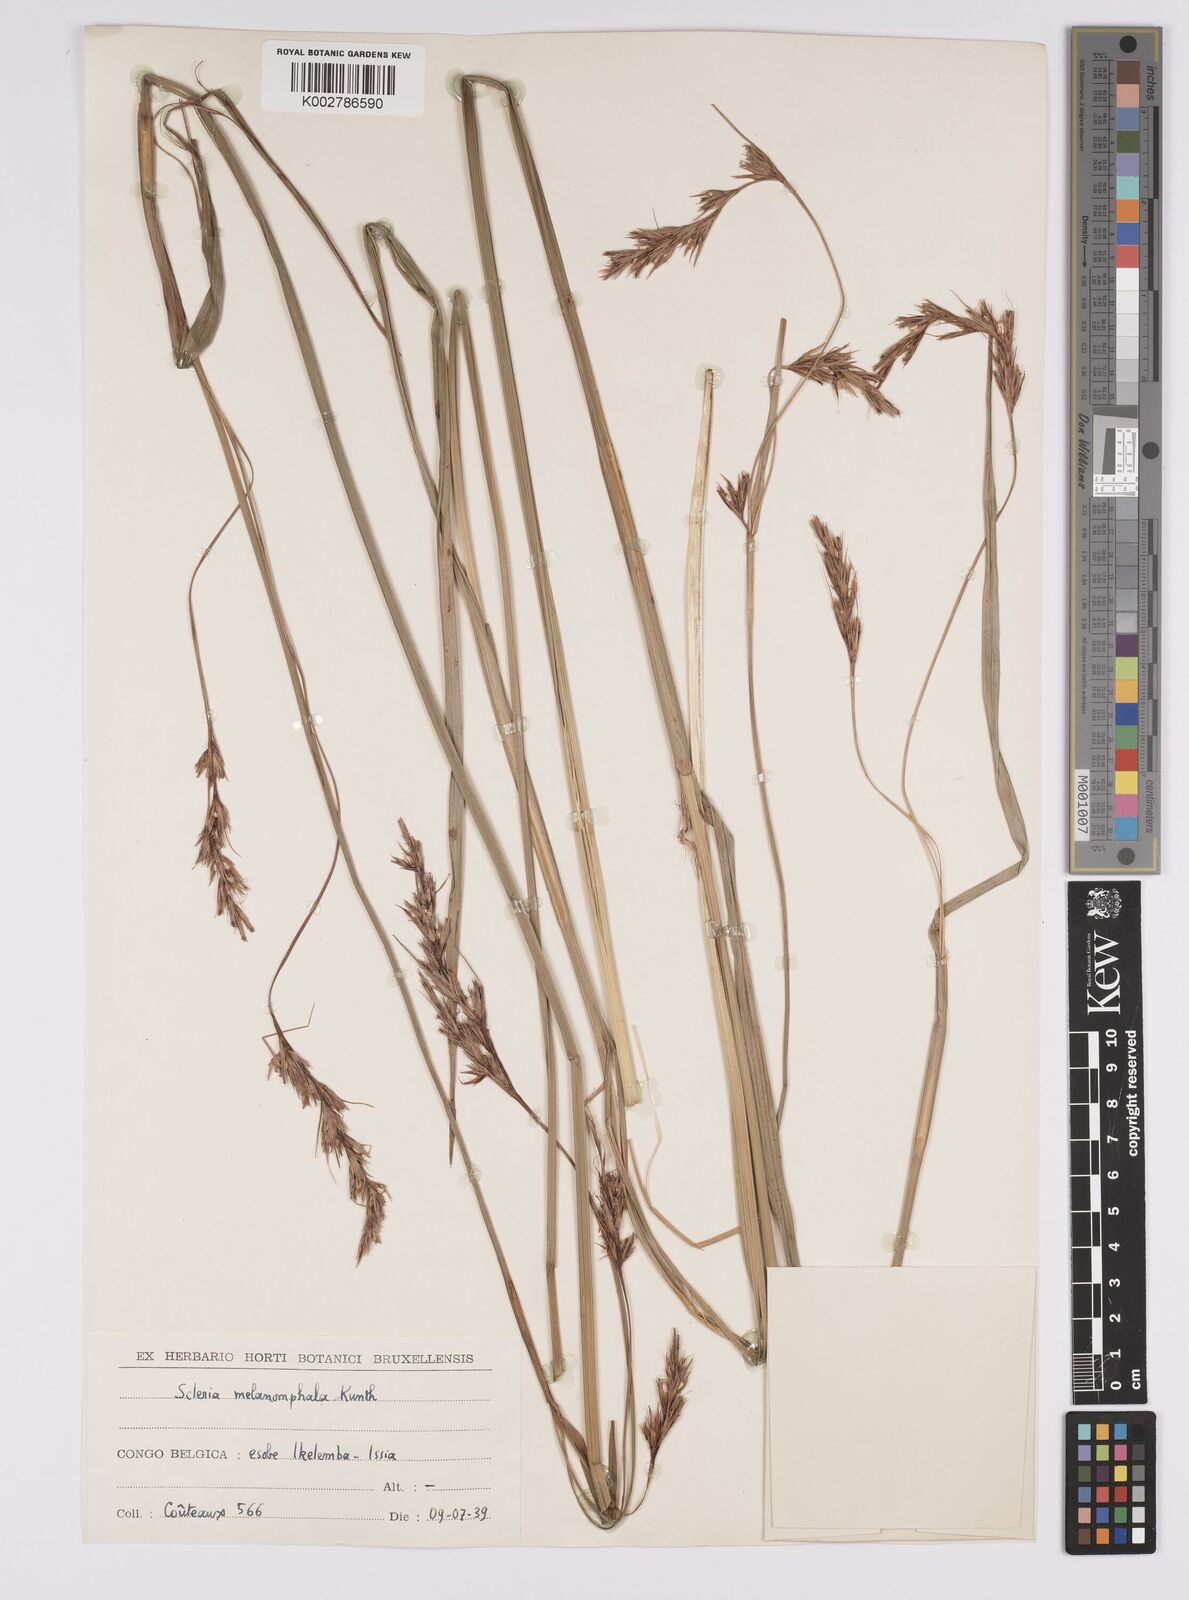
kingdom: Plantae
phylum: Tracheophyta
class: Liliopsida
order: Poales
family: Cyperaceae
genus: Scleria
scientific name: Scleria melanomphala
